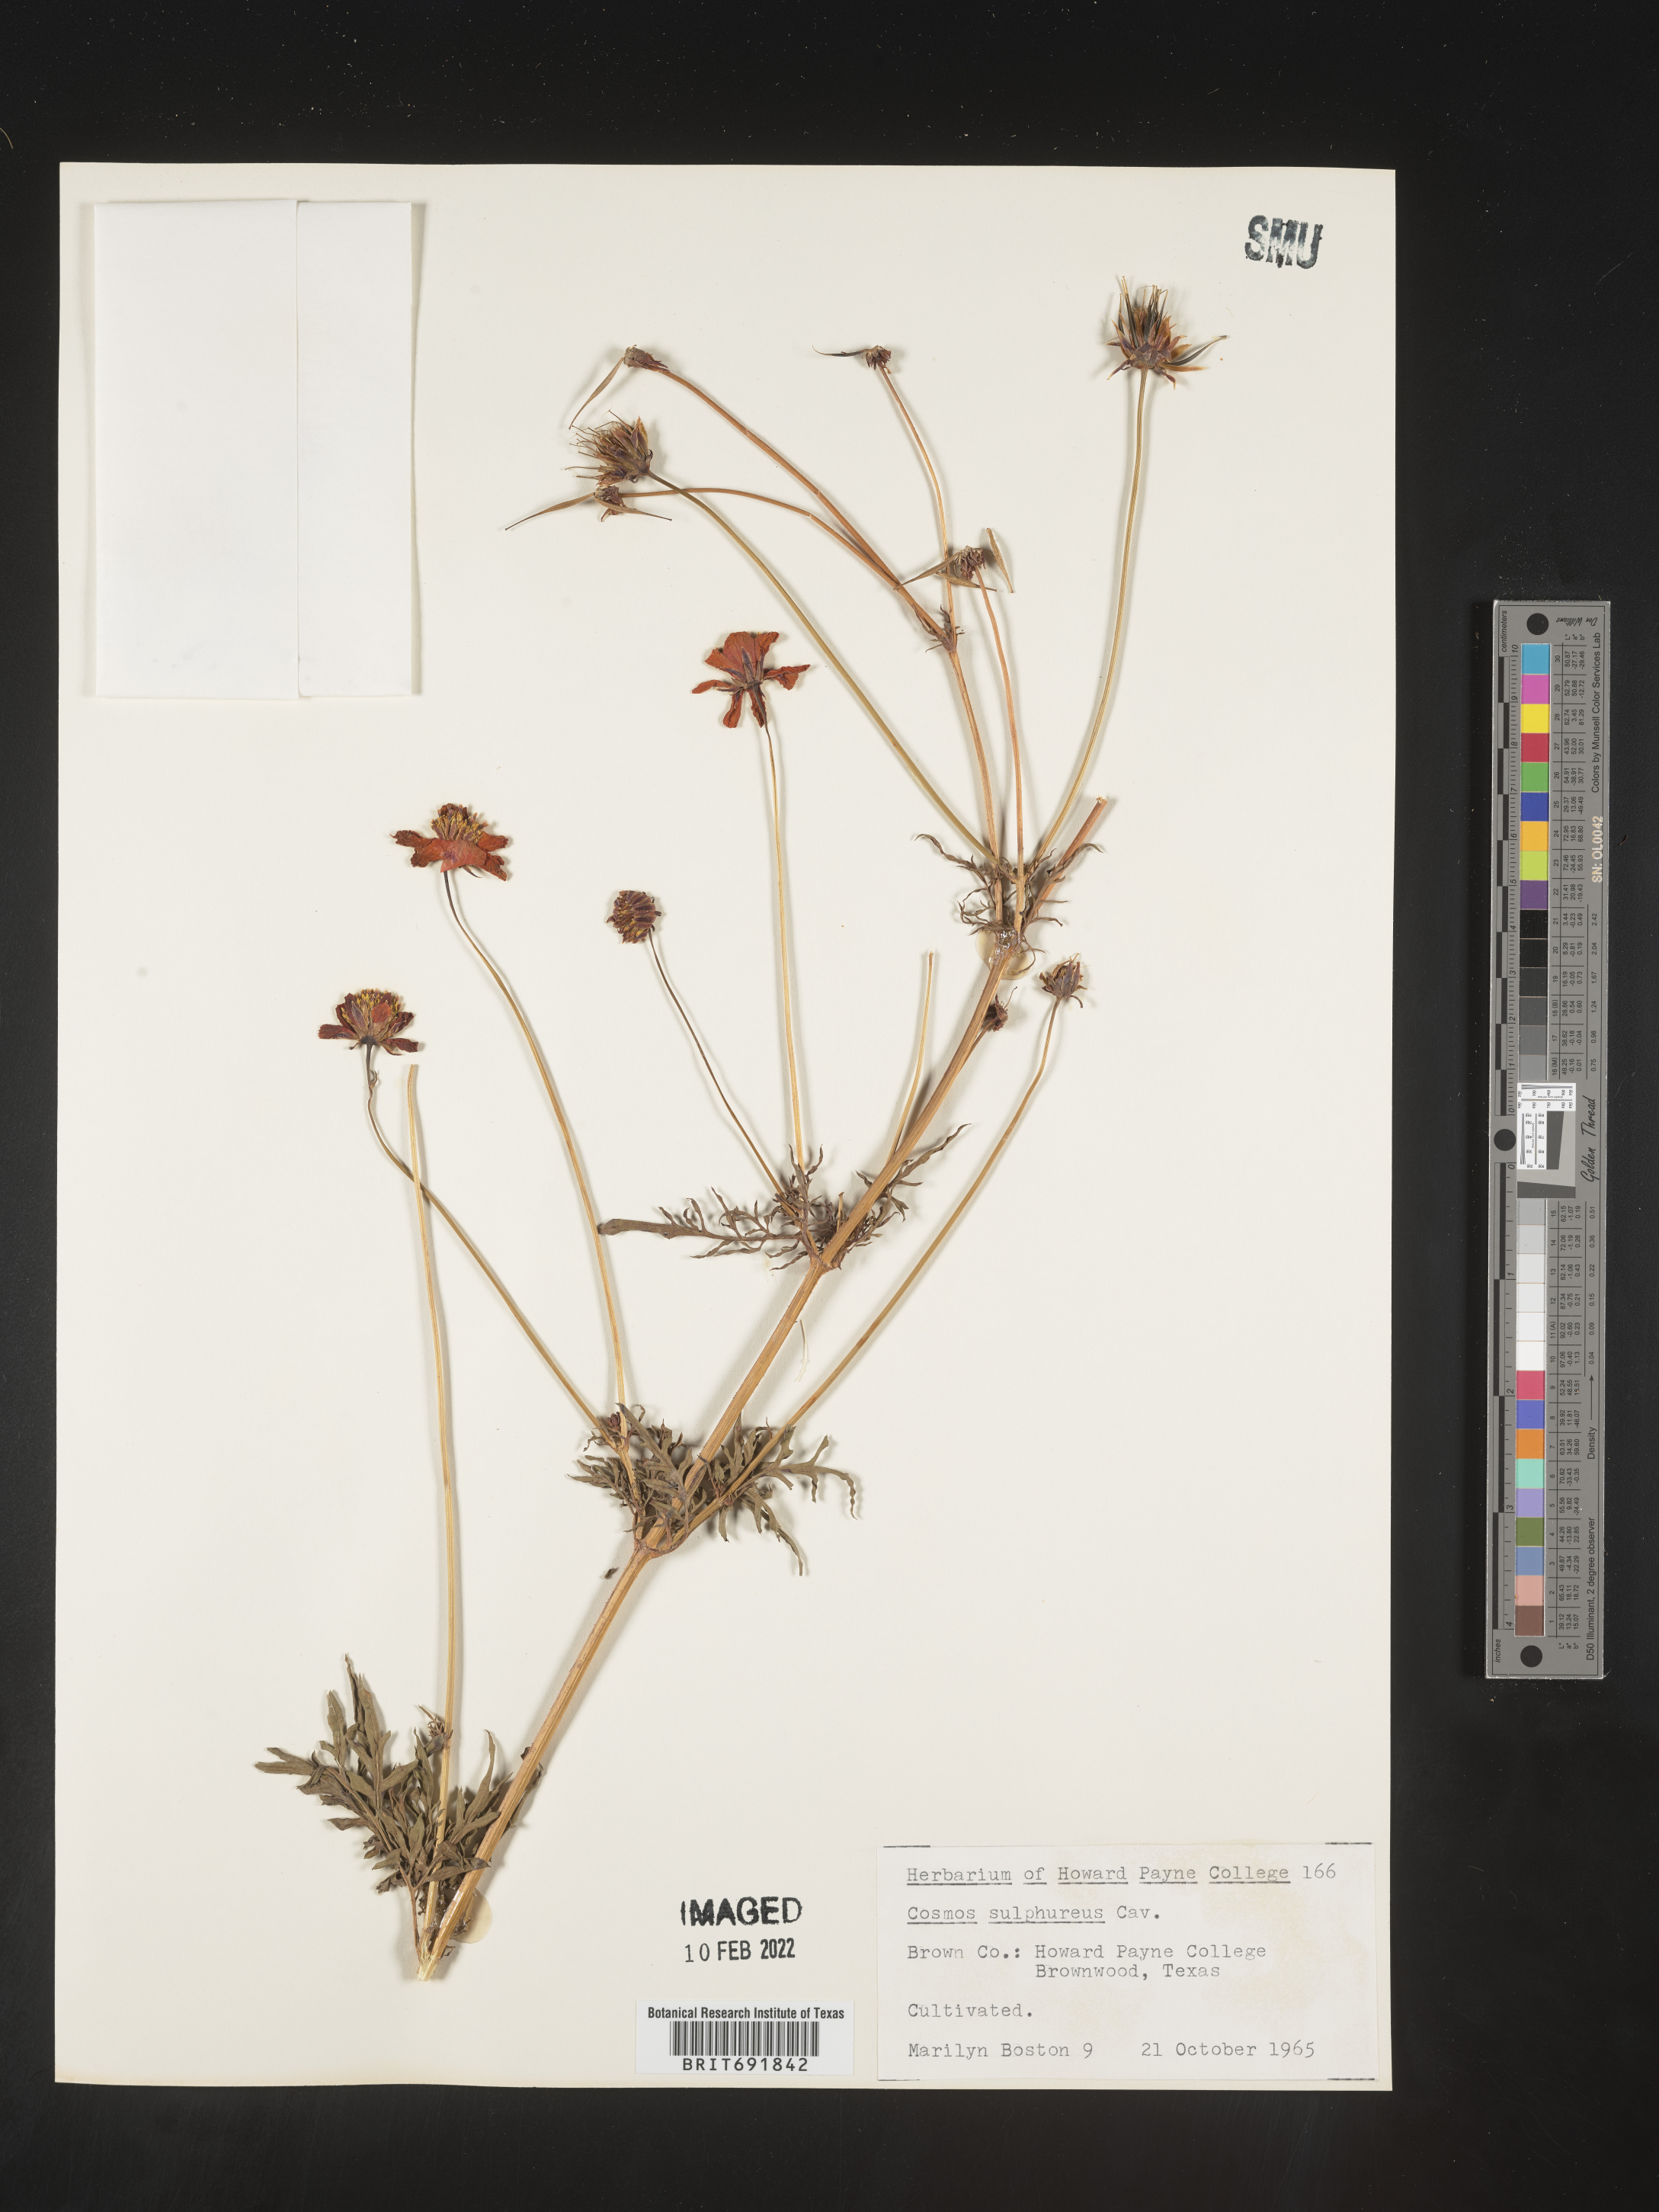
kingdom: Plantae
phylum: Tracheophyta
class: Magnoliopsida
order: Asterales
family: Asteraceae
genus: Cosmos
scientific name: Cosmos
